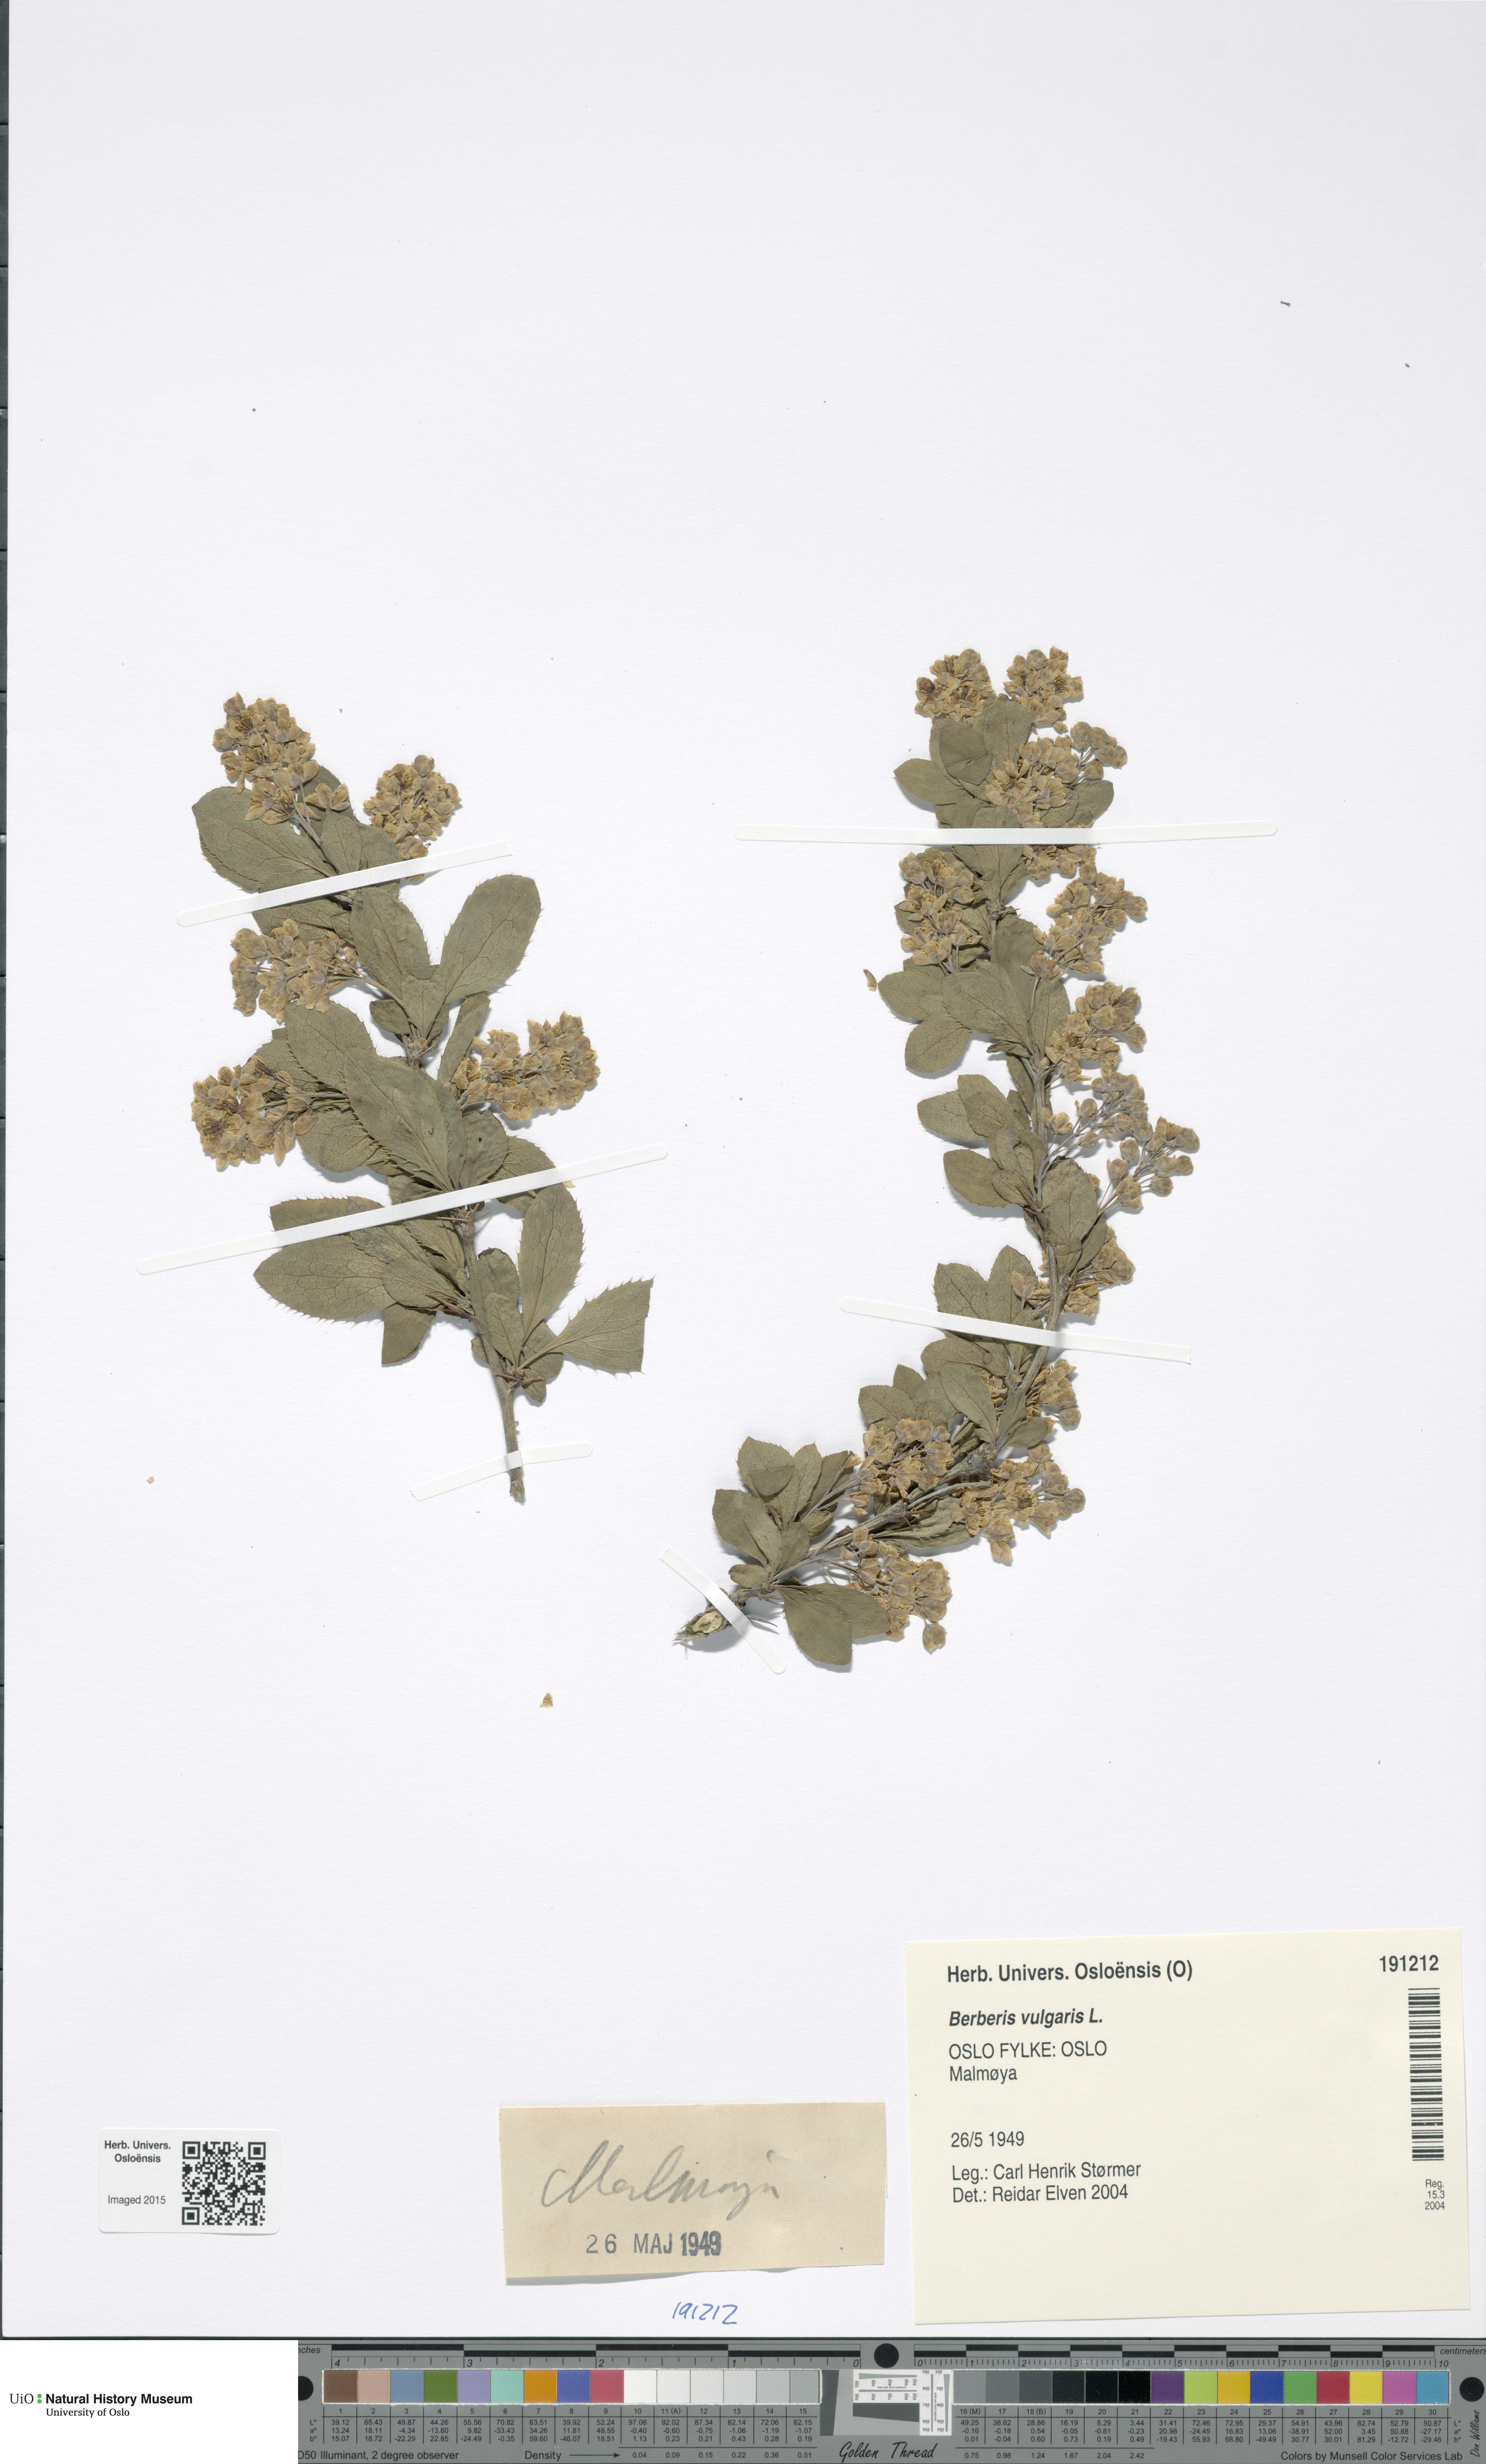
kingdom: Plantae
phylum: Tracheophyta
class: Magnoliopsida
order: Ranunculales
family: Berberidaceae
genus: Berberis
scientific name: Berberis vulgaris
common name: Barberry
